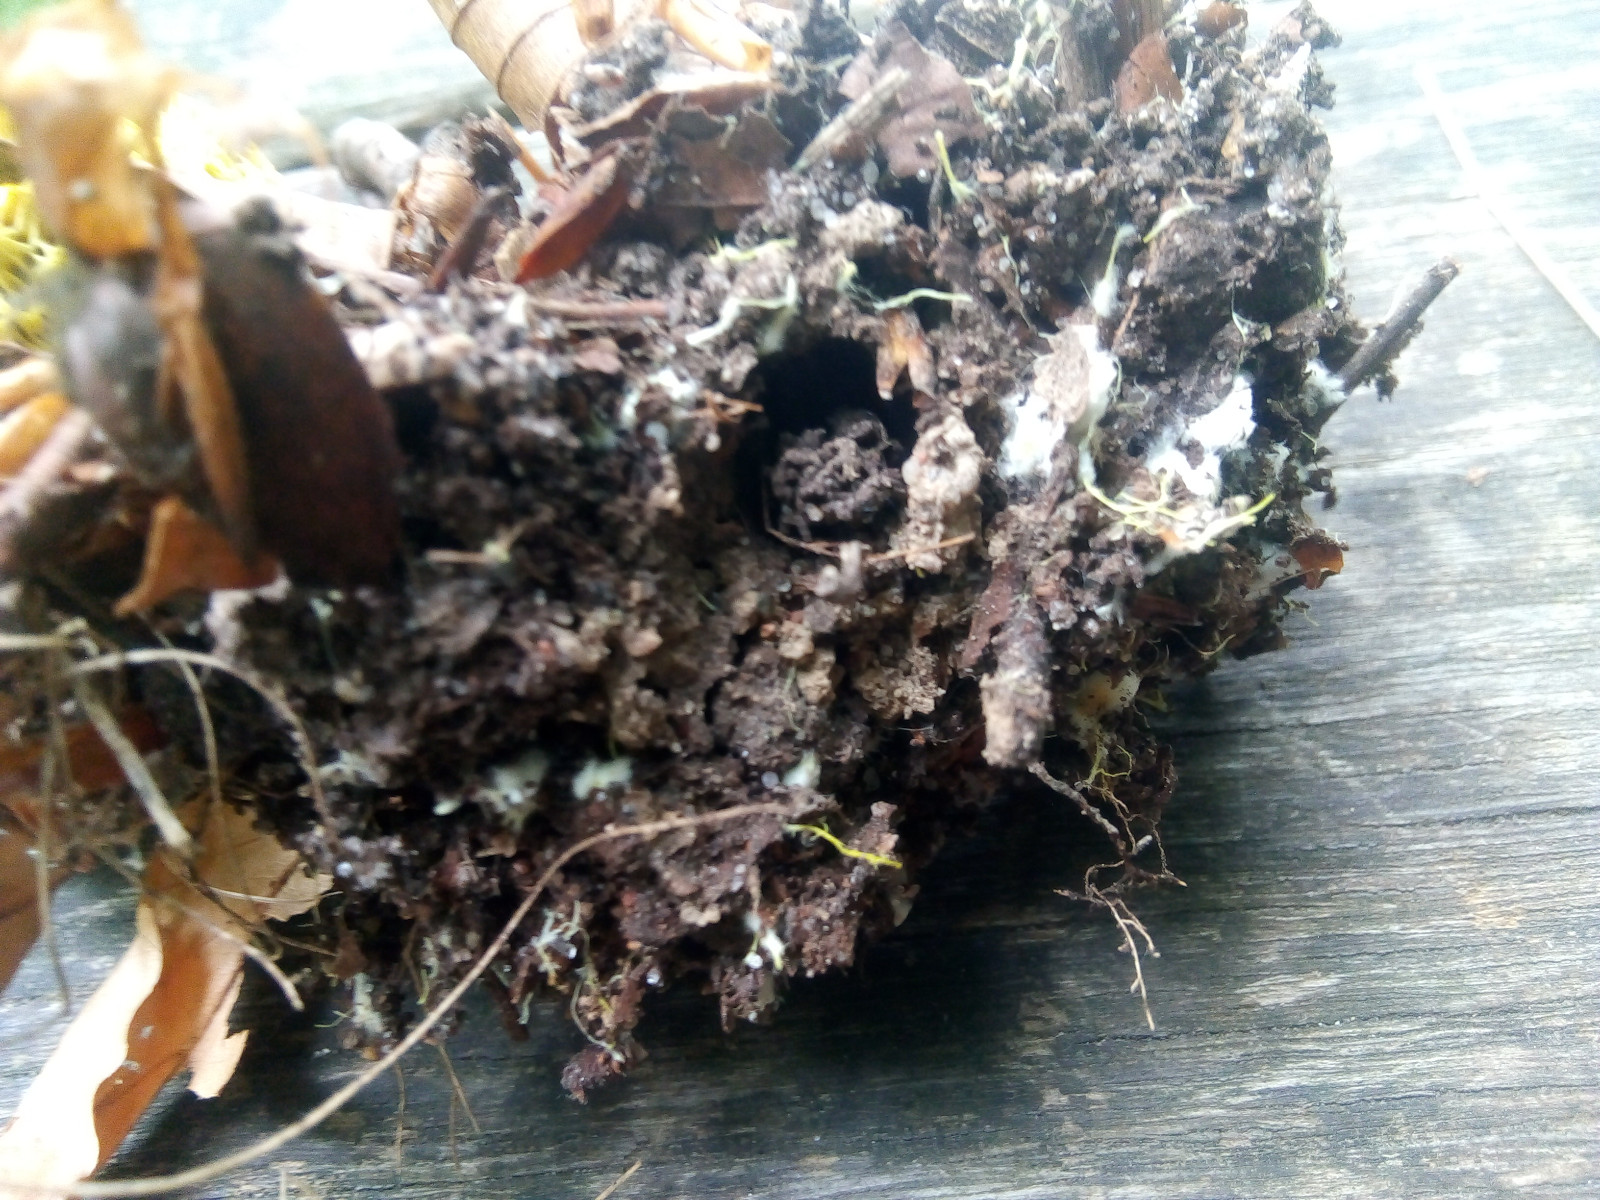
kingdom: Fungi
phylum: Basidiomycota
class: Agaricomycetes
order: Boletales
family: Boletaceae
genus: Xerocomus
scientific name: Xerocomus ferrugineus
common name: vaskeskinds-rørhat
